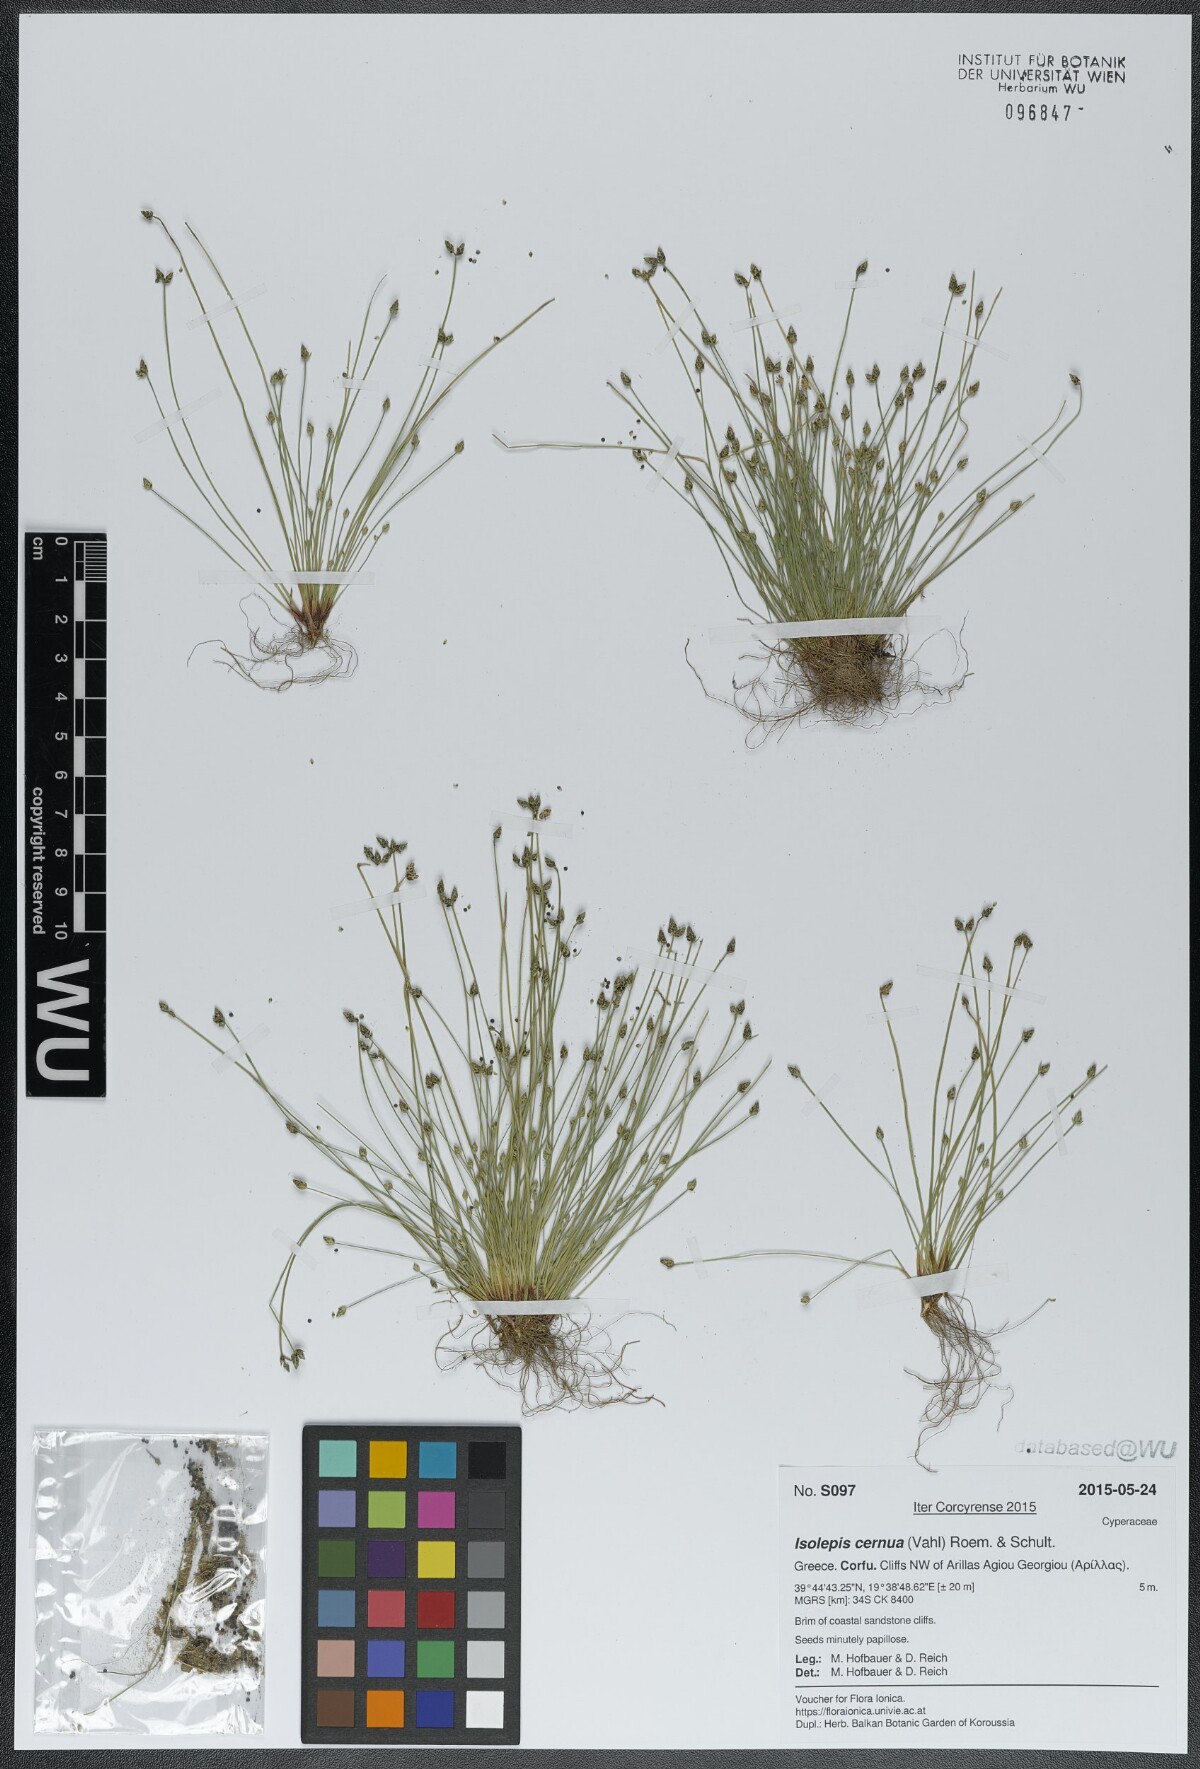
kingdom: Plantae
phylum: Tracheophyta
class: Liliopsida
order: Poales
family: Cyperaceae
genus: Isolepis
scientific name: Isolepis cernua
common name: Slender club-rush
